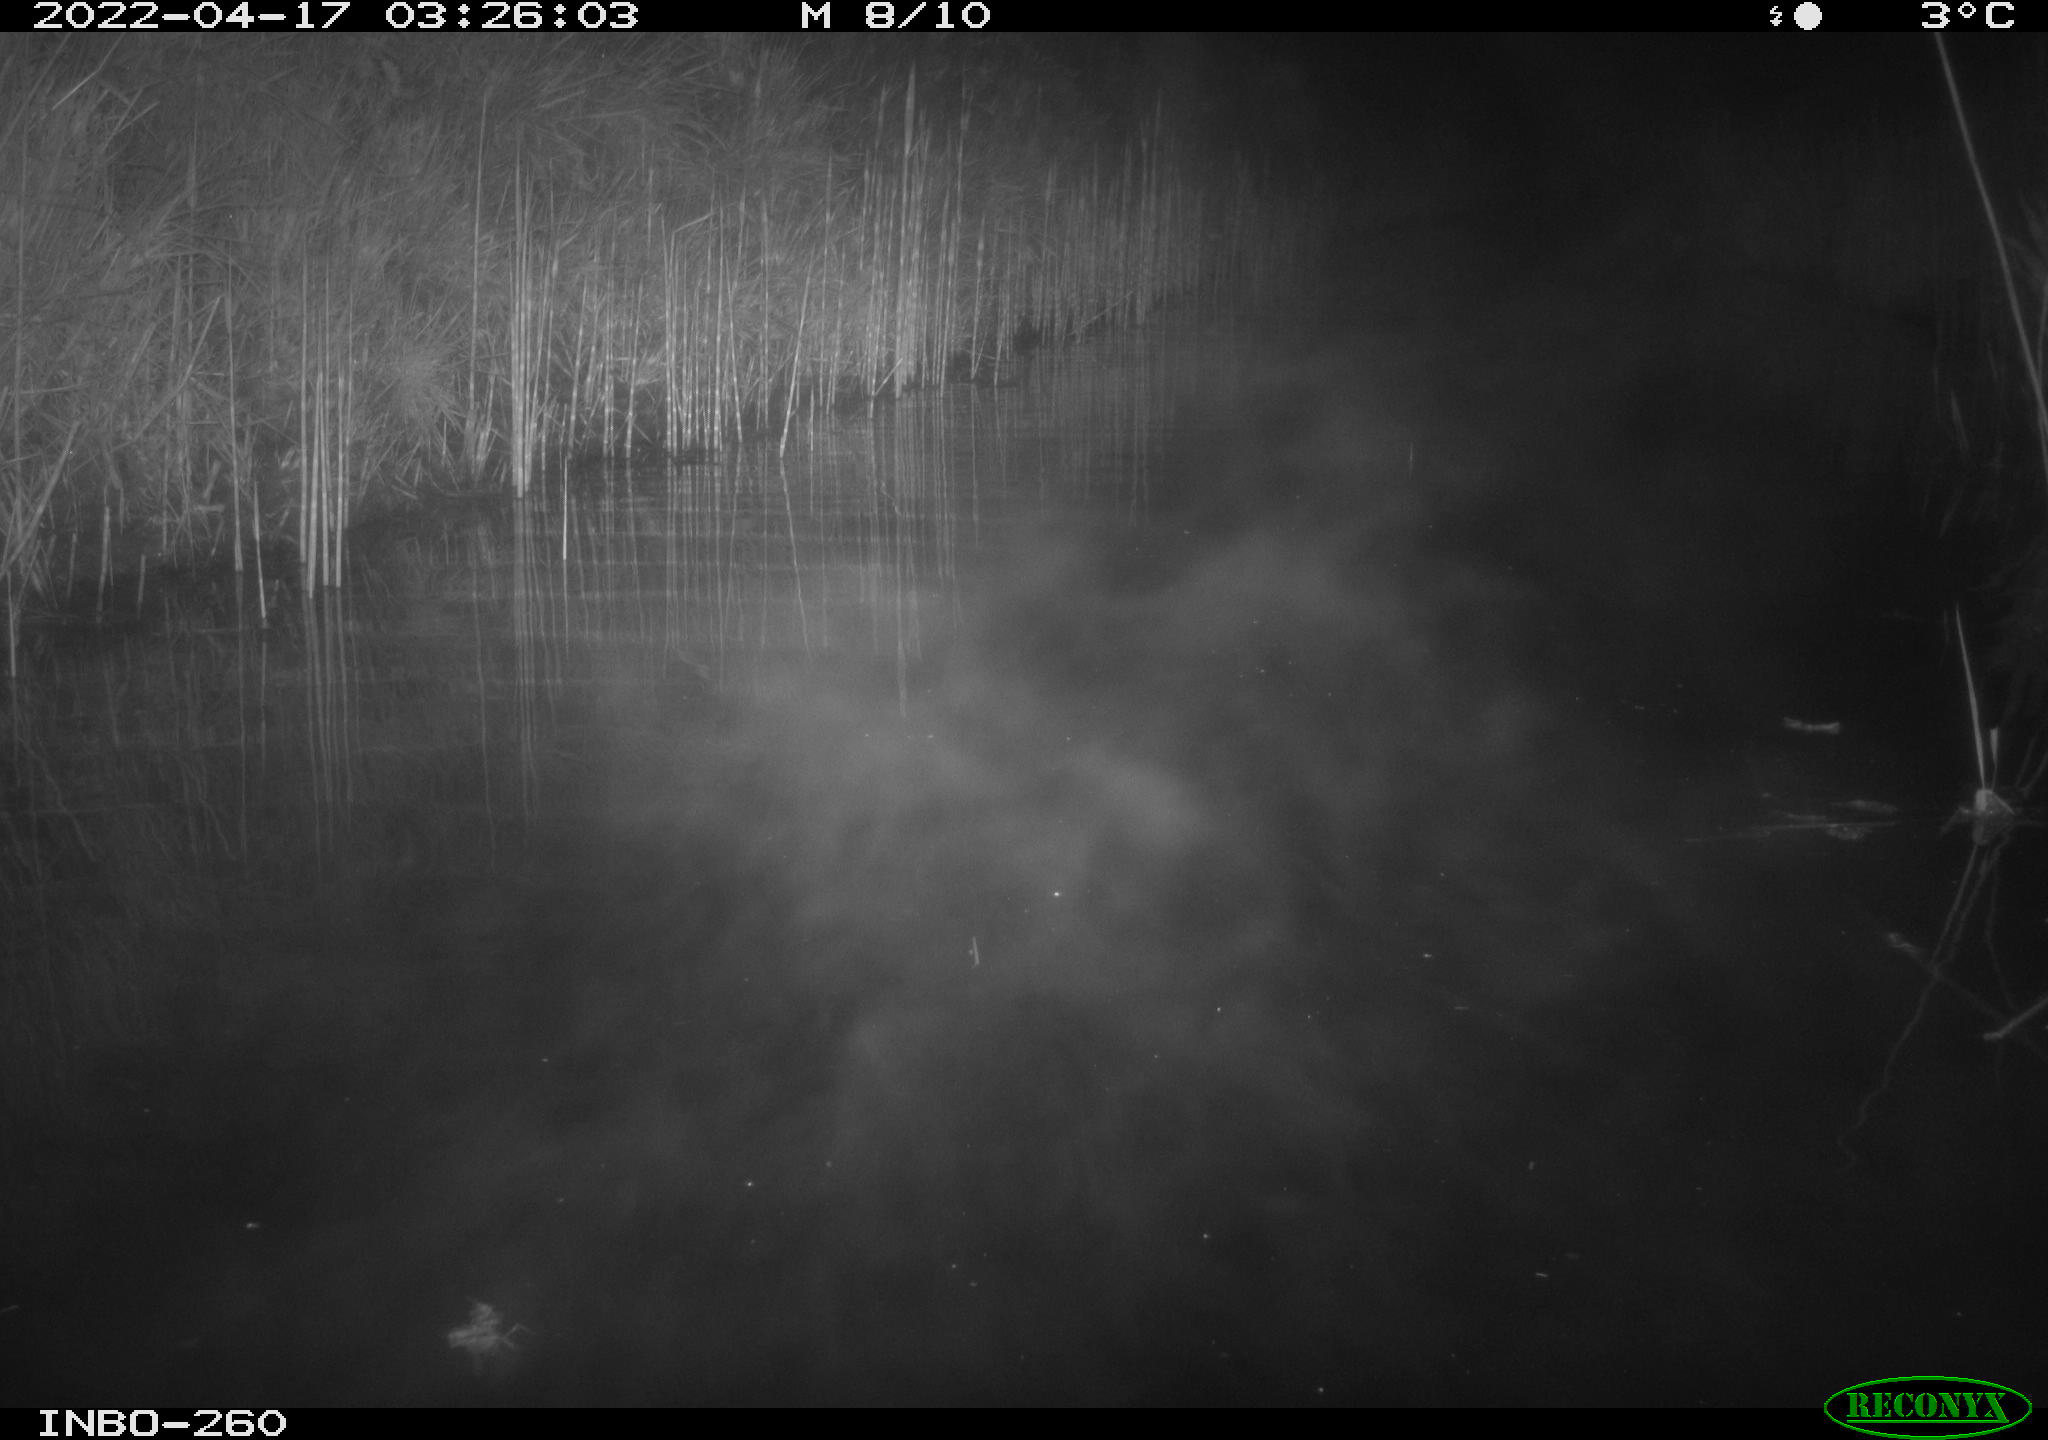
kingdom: Animalia
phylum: Chordata
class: Mammalia
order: Rodentia
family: Cricetidae
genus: Ondatra
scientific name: Ondatra zibethicus
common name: Muskrat
